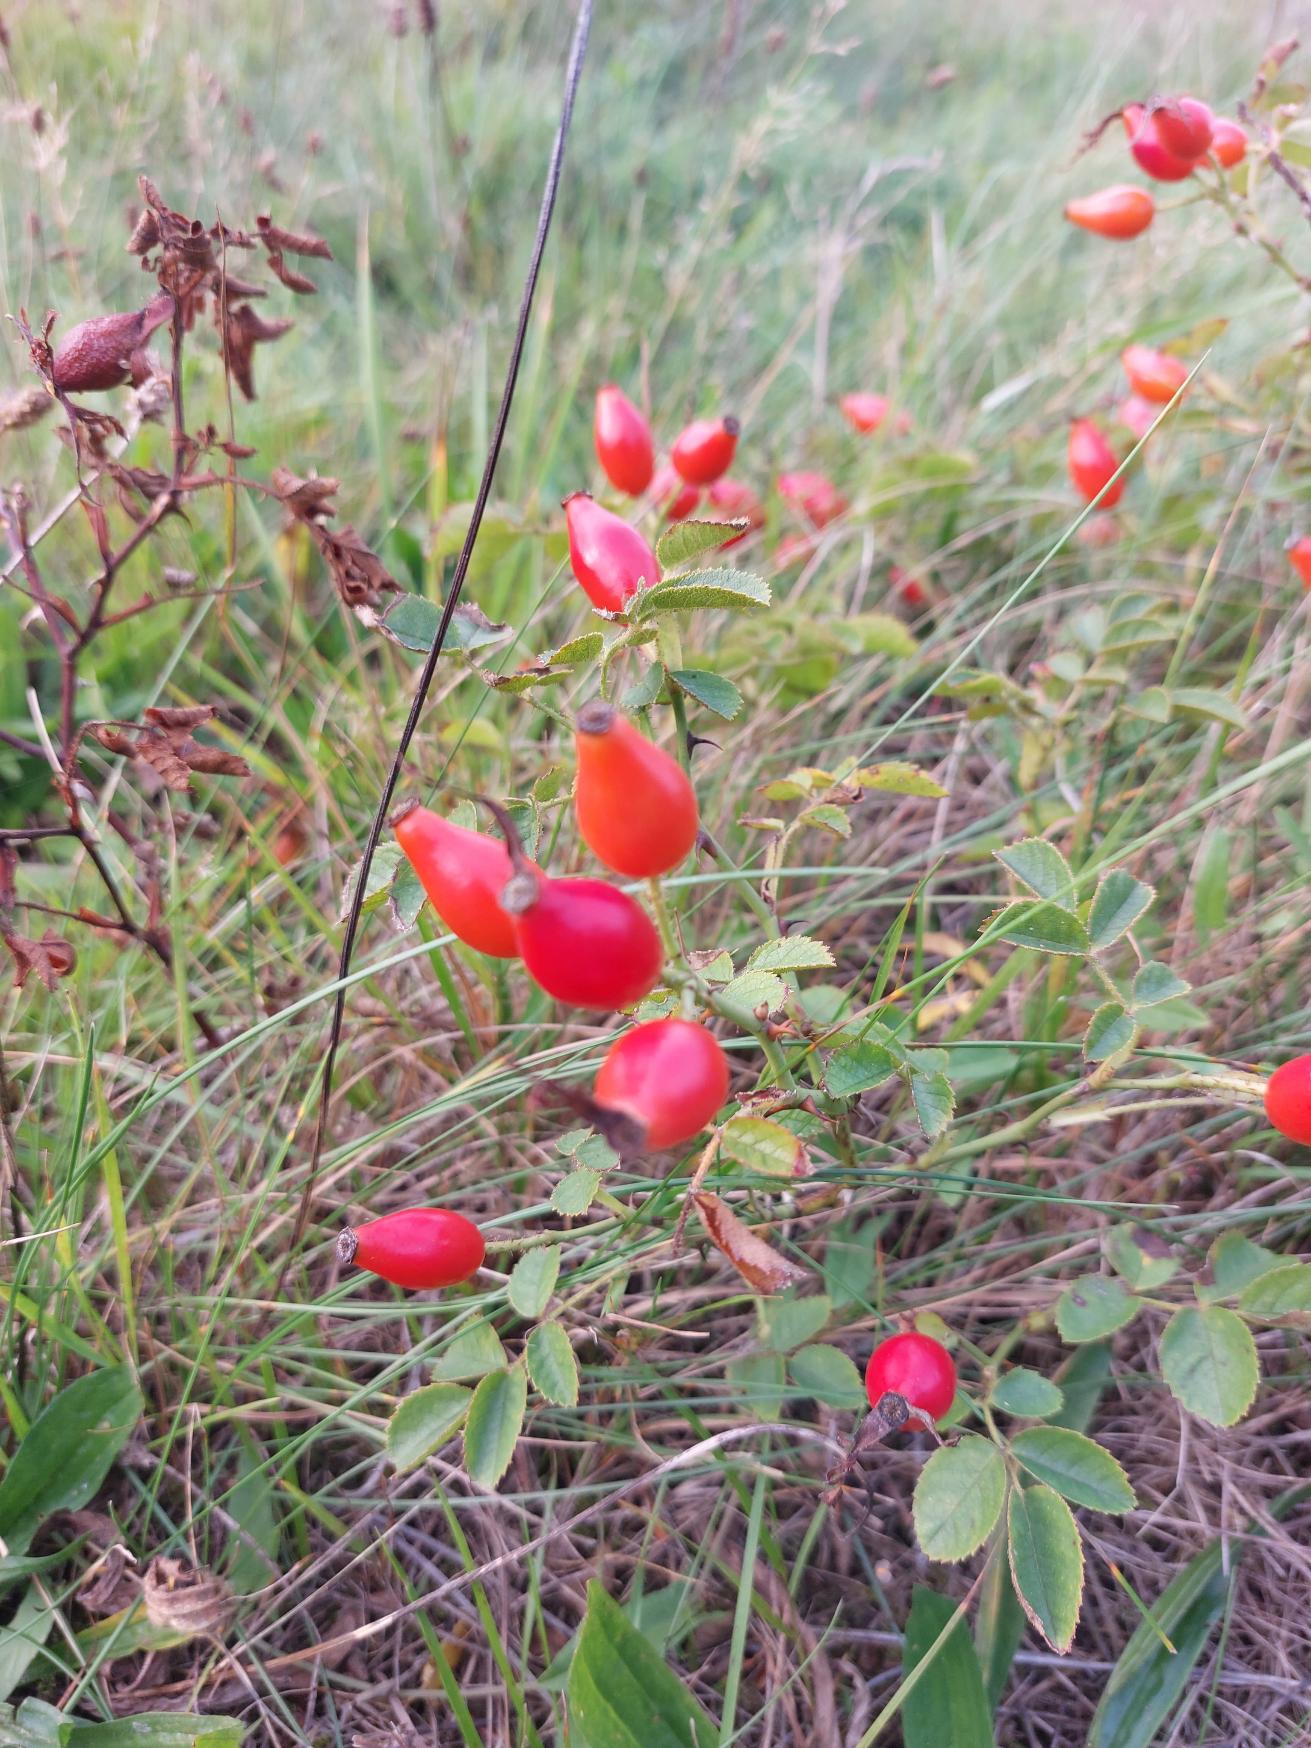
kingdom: Plantae
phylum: Tracheophyta
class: Magnoliopsida
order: Rosales
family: Rosaceae
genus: Rosa
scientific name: Rosa rubiginosa
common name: Æble-rose
